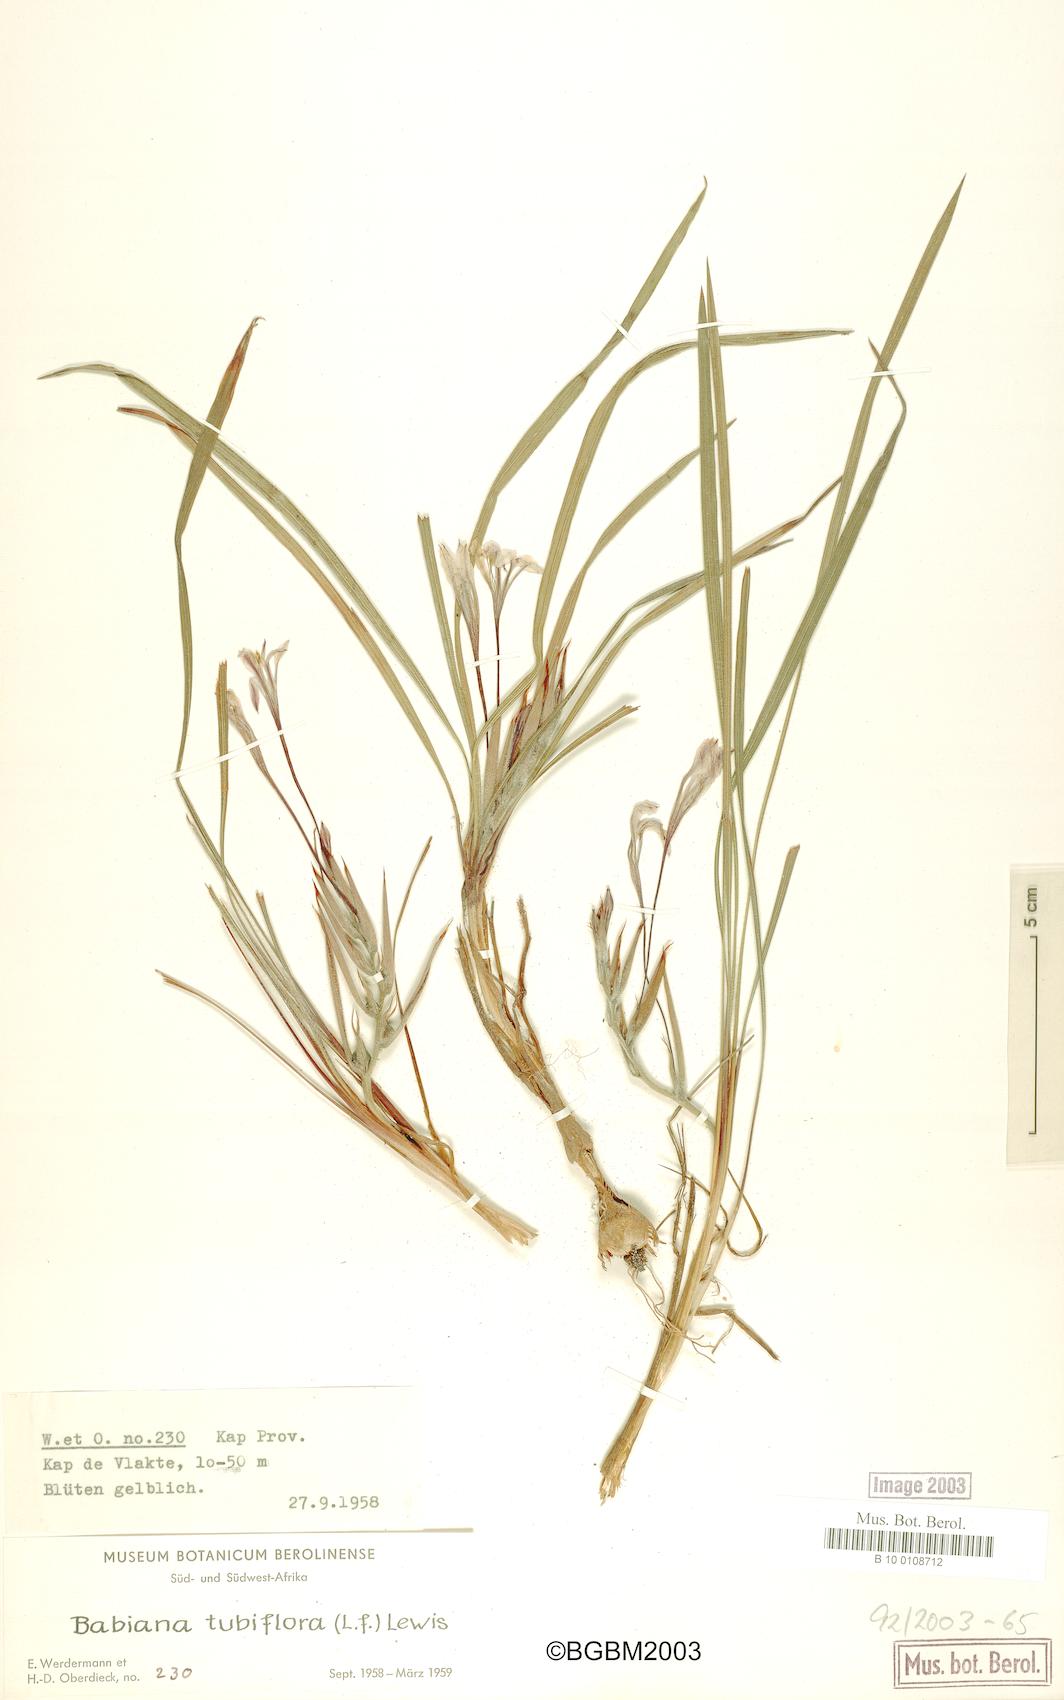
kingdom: Plantae
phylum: Tracheophyta
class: Liliopsida
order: Asparagales
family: Iridaceae
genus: Babiana
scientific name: Babiana tubiflora
